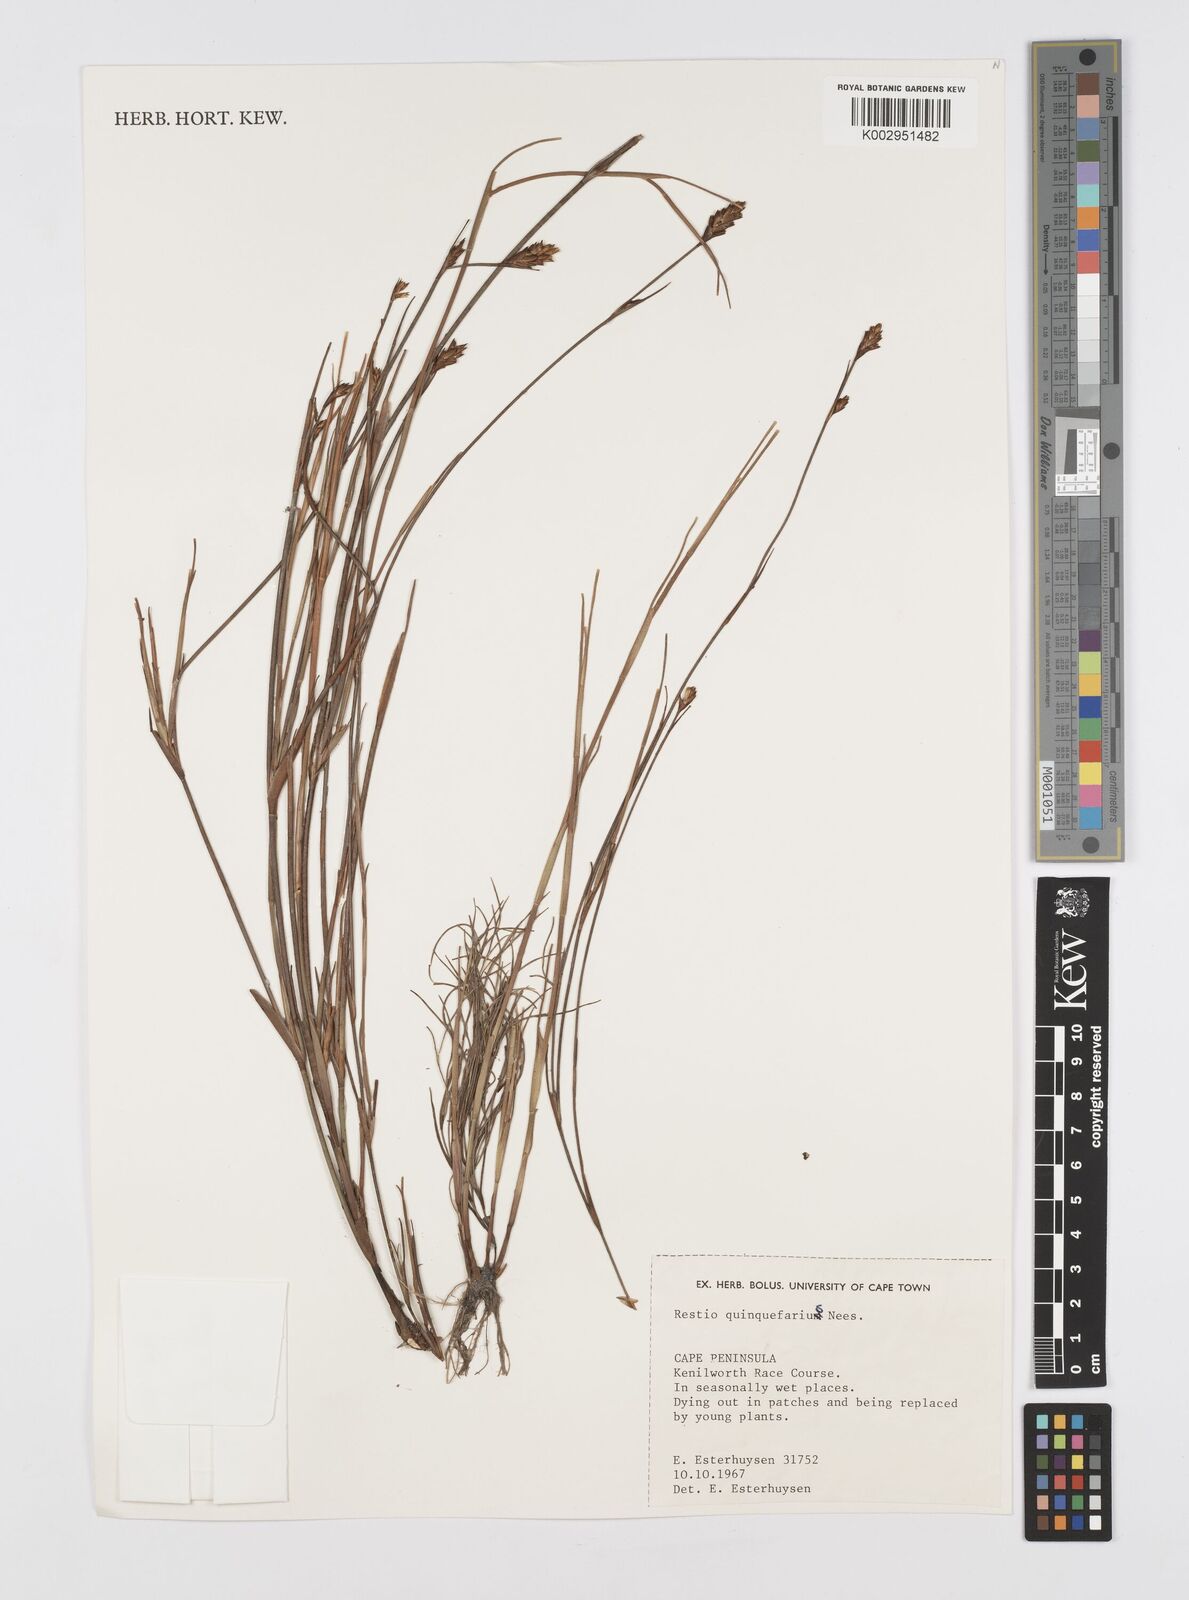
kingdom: Plantae
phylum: Tracheophyta
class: Liliopsida
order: Poales
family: Restionaceae
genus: Restio
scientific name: Restio quinquefarius
